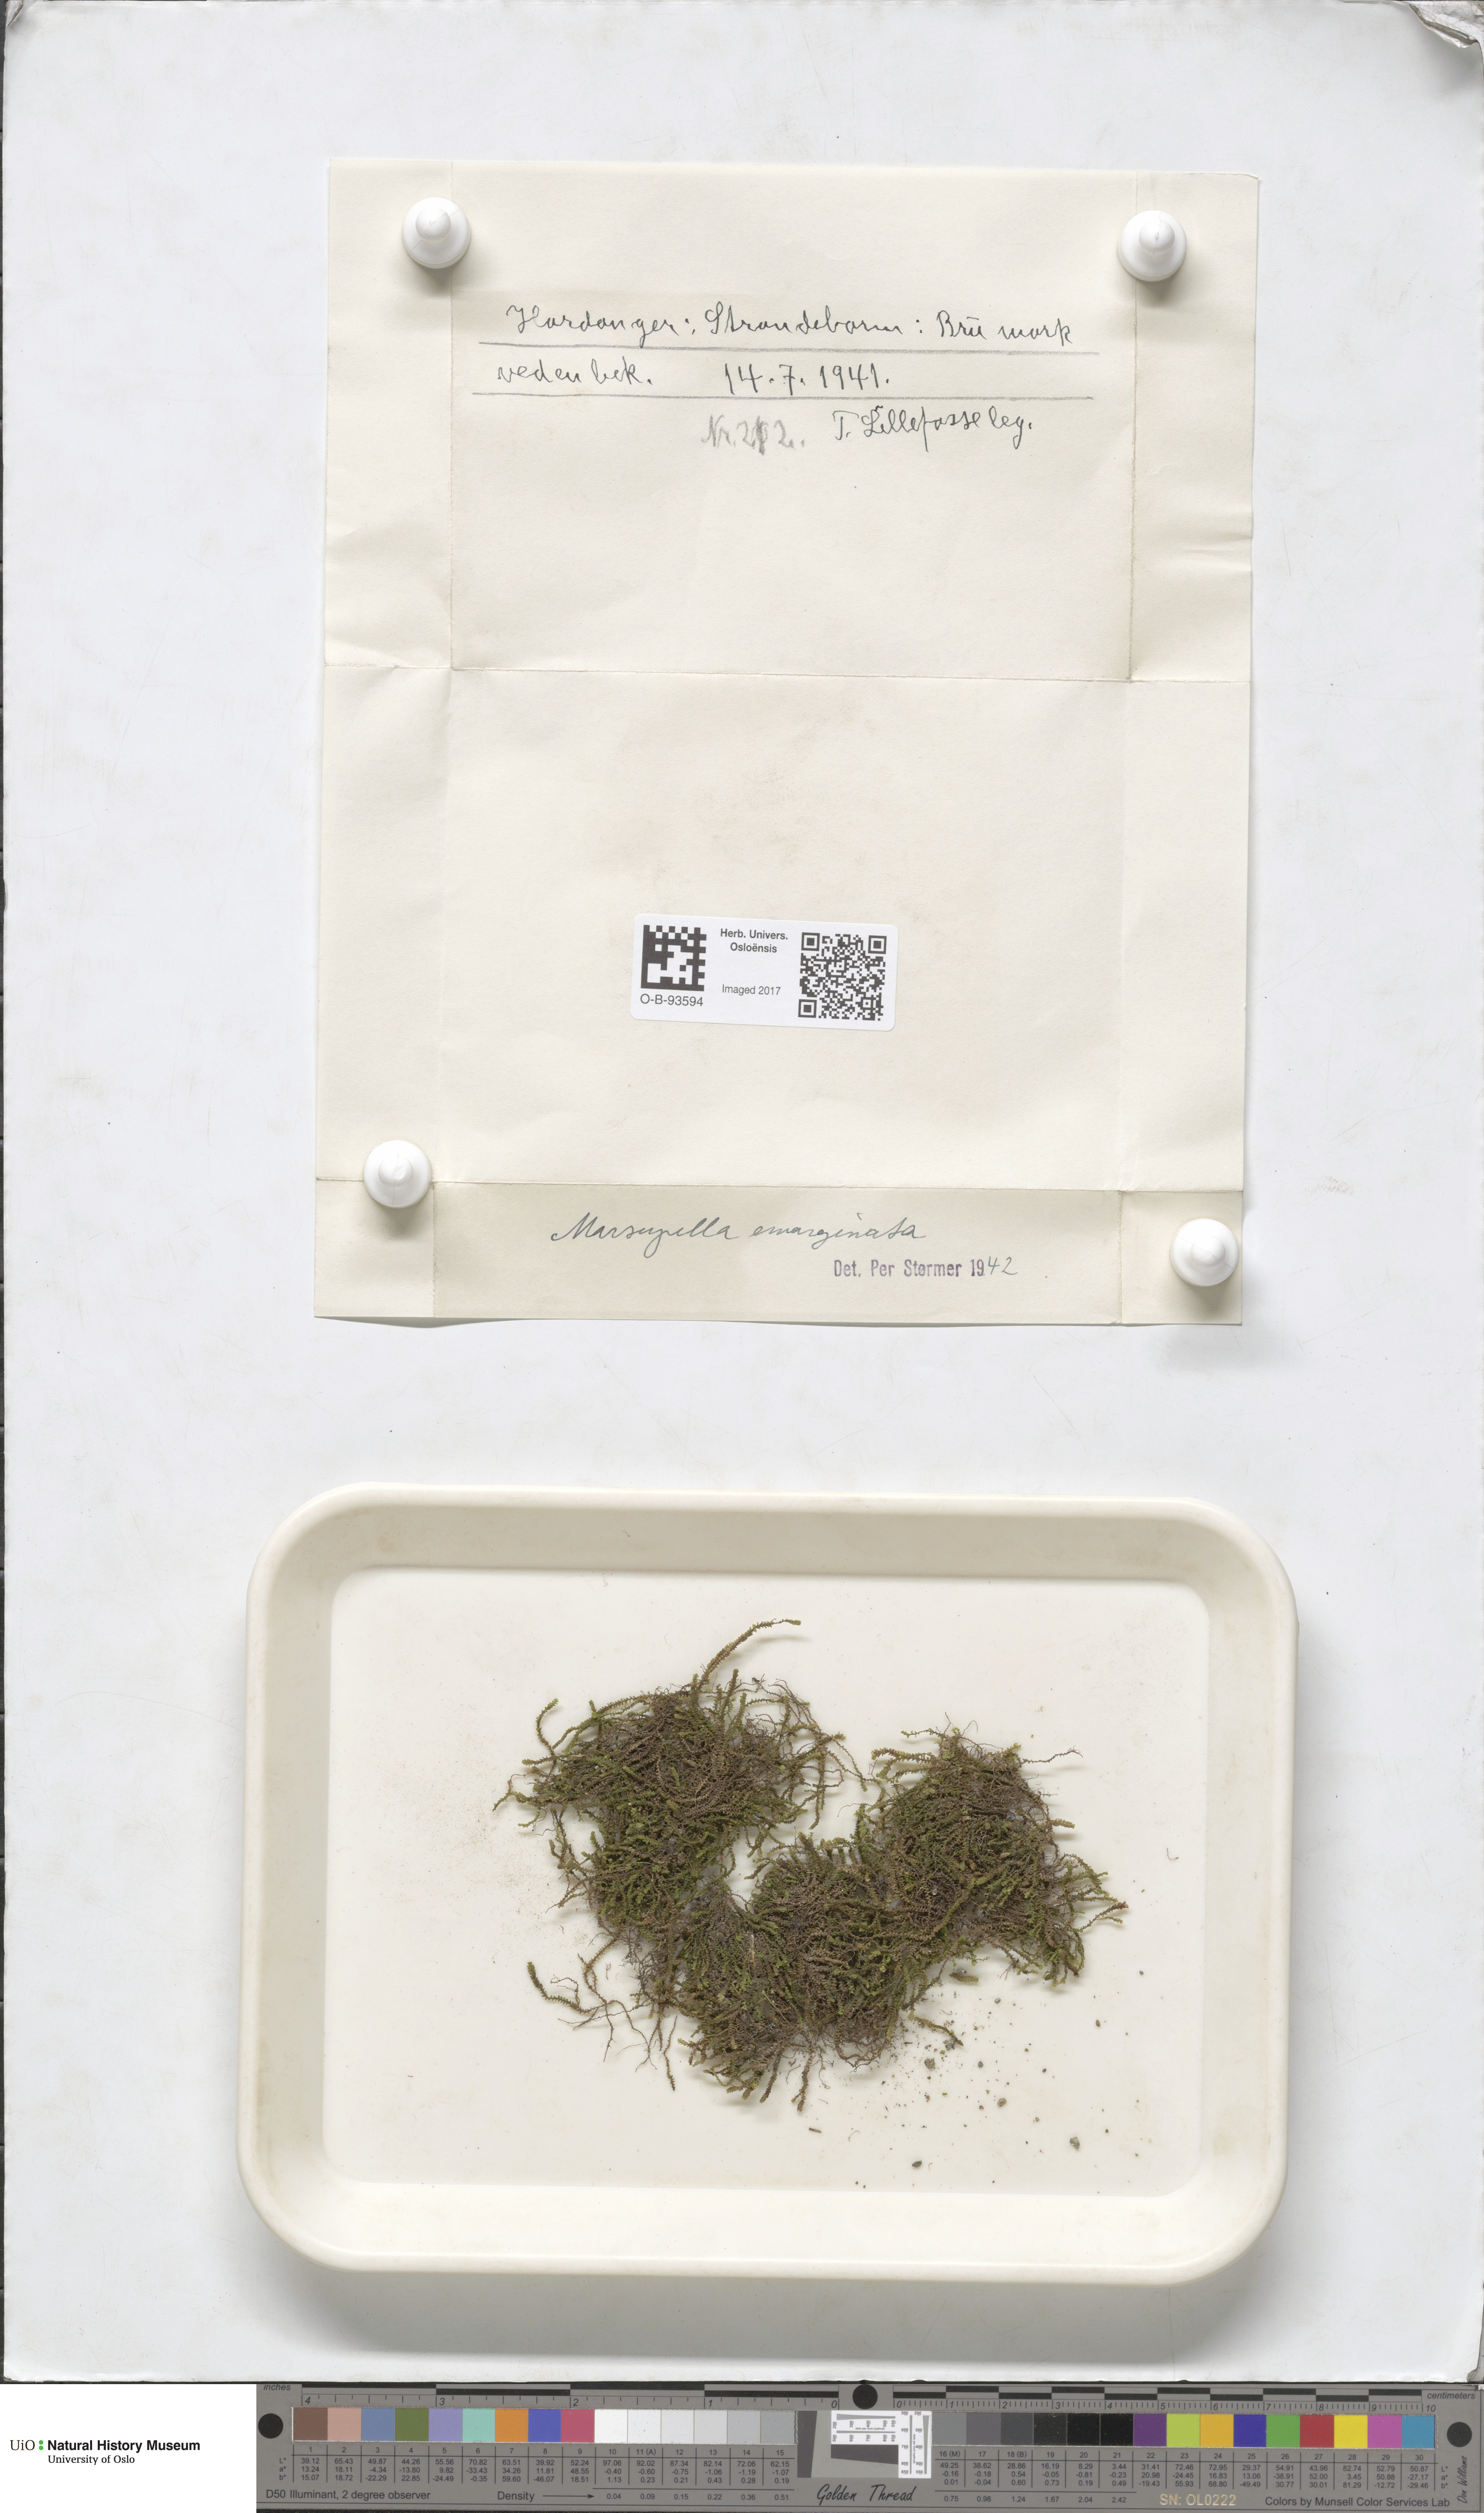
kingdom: Plantae
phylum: Marchantiophyta
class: Jungermanniopsida
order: Jungermanniales
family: Gymnomitriaceae
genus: Marsupella
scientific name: Marsupella emarginata
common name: Notched rustwort
